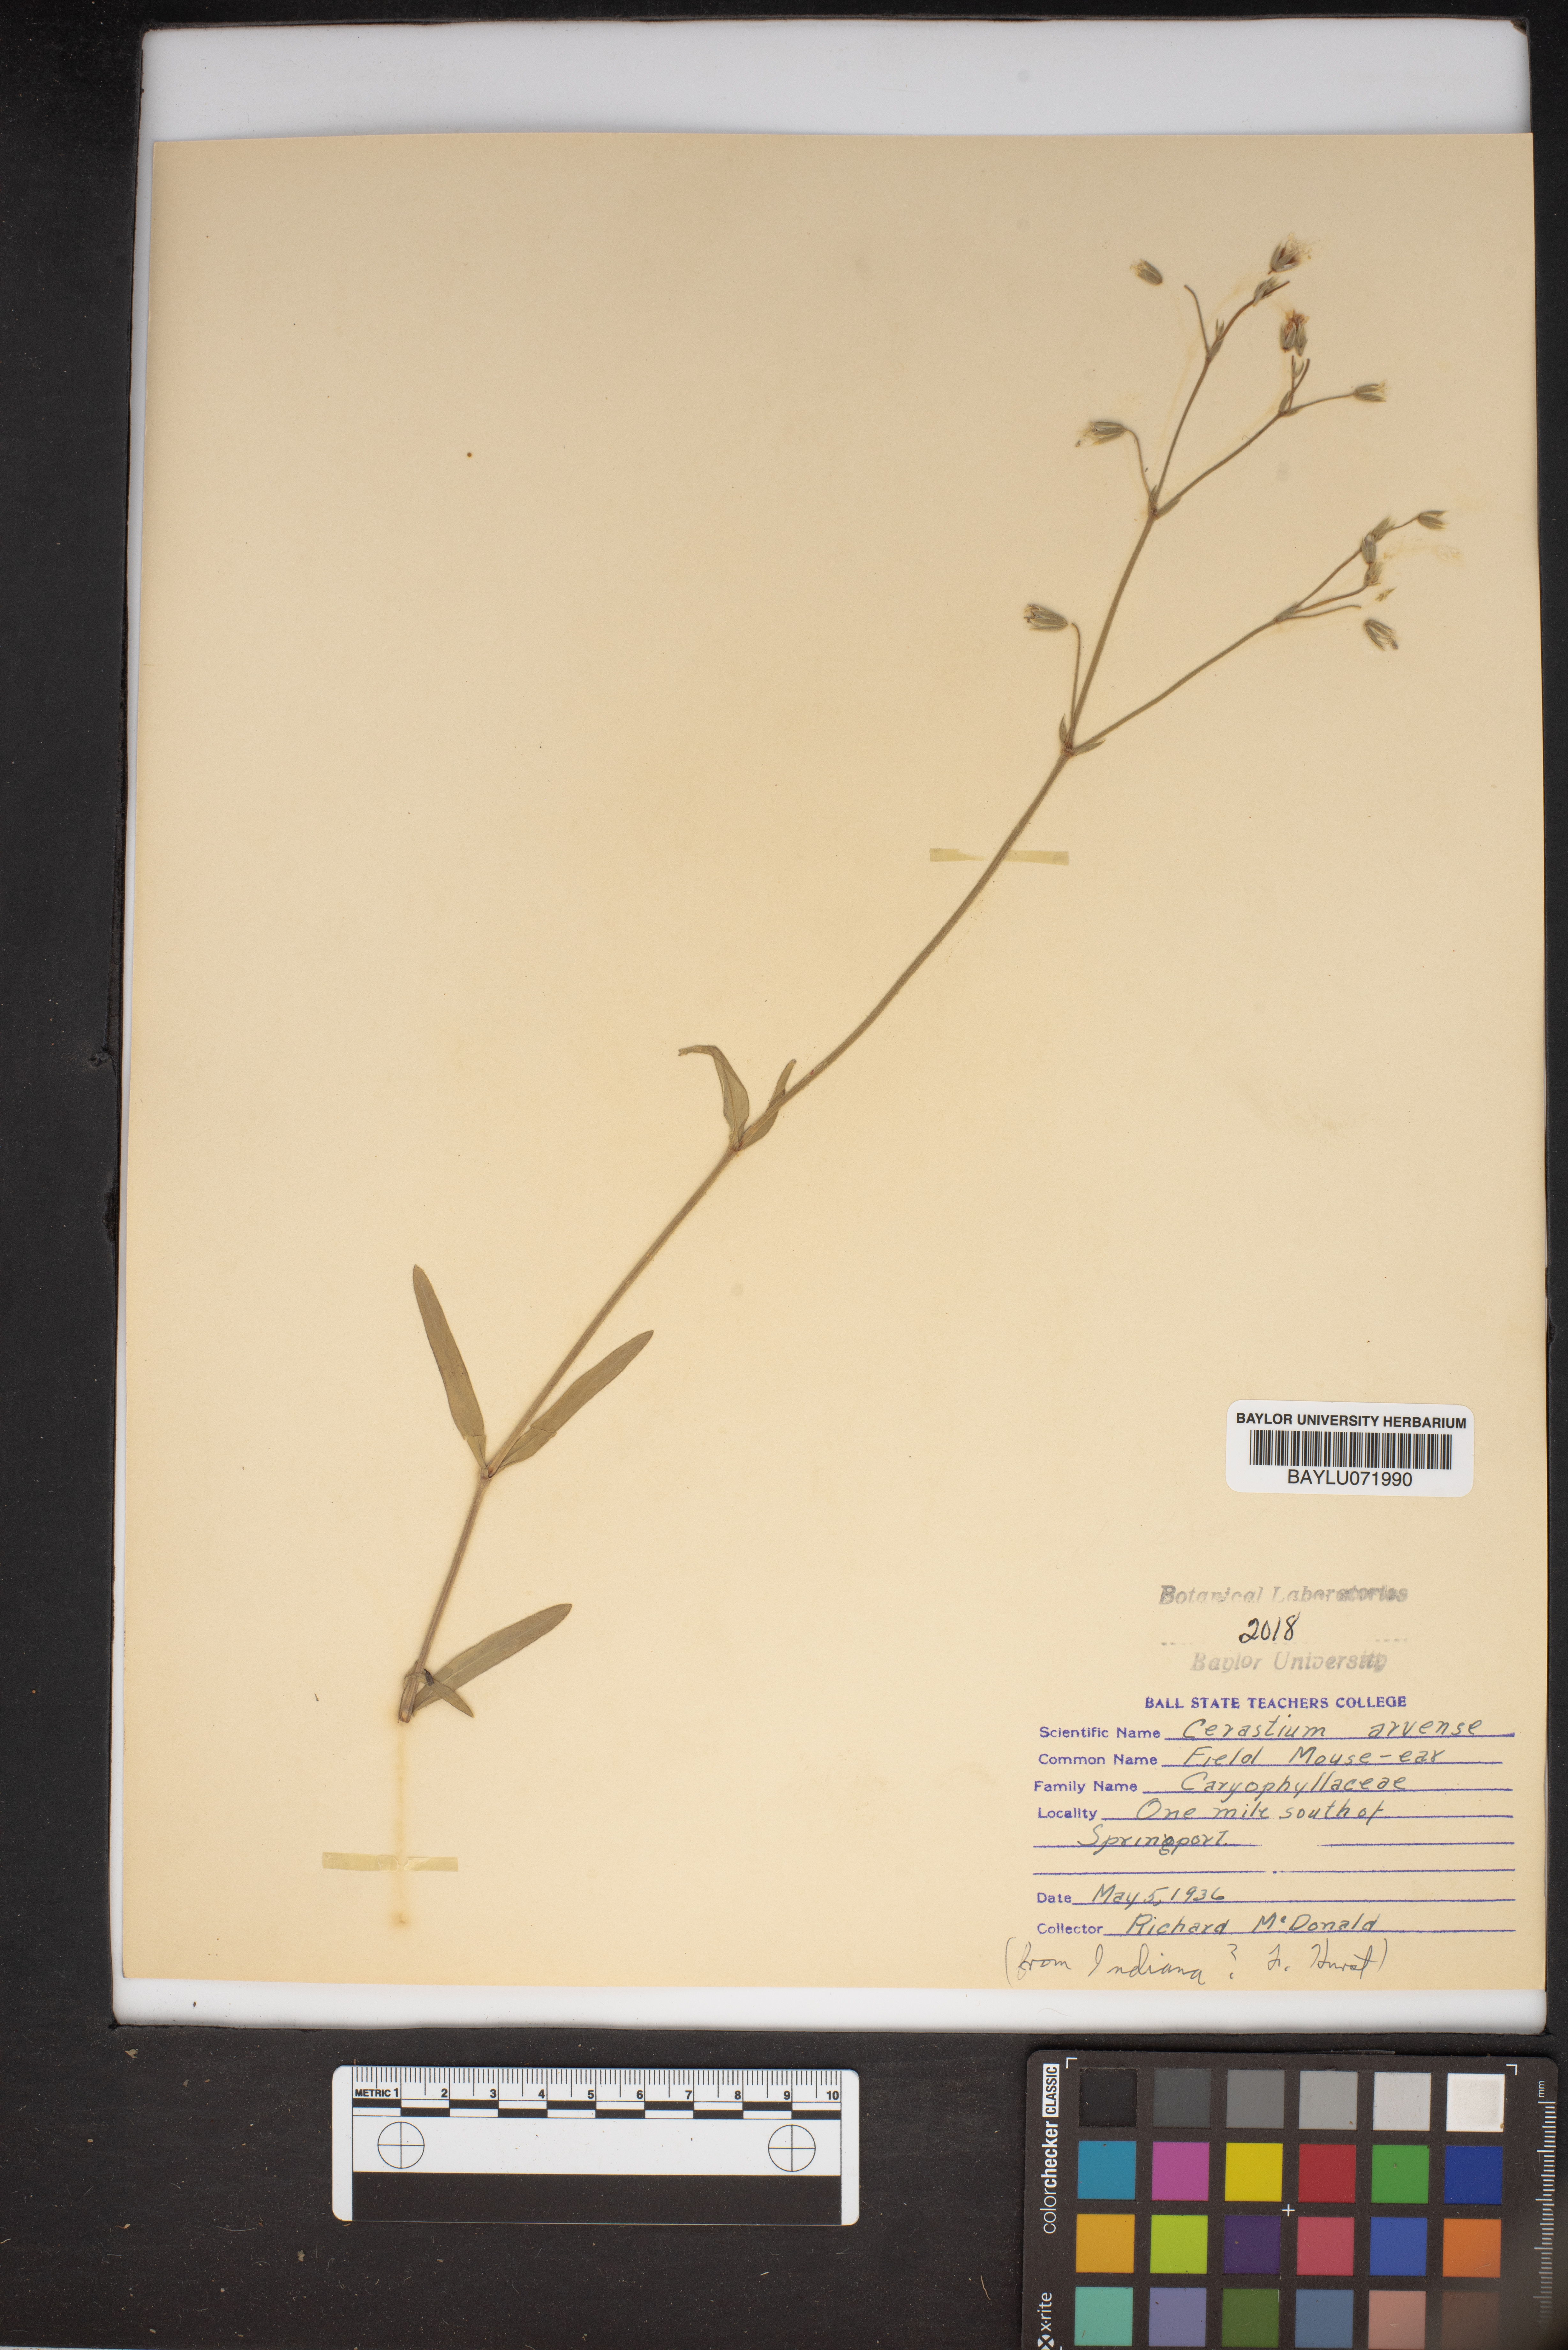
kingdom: Plantae
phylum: Tracheophyta
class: Magnoliopsida
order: Caryophyllales
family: Caryophyllaceae
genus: Cerastium
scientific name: Cerastium arvense
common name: Field mouse-ear
